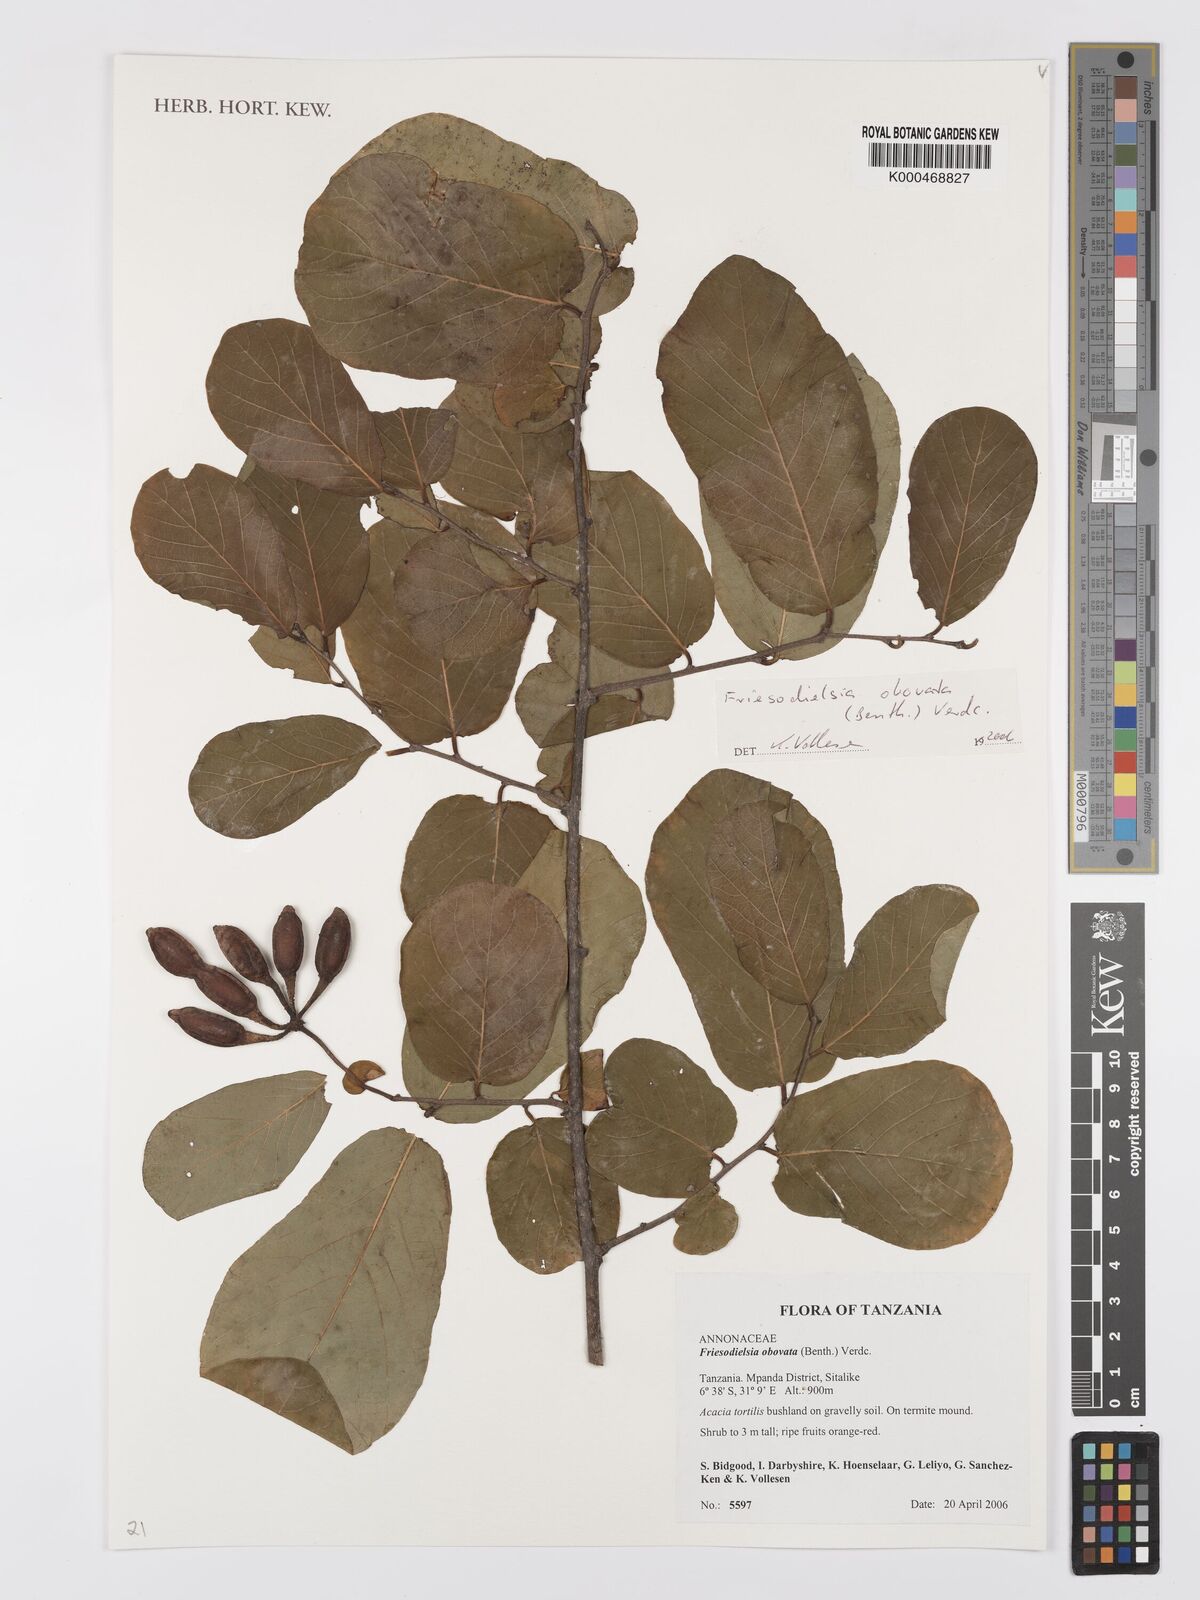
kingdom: Plantae
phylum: Tracheophyta
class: Magnoliopsida
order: Magnoliales
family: Annonaceae
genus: Friesodielsia
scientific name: Friesodielsia obovata
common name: Monkey fingers
